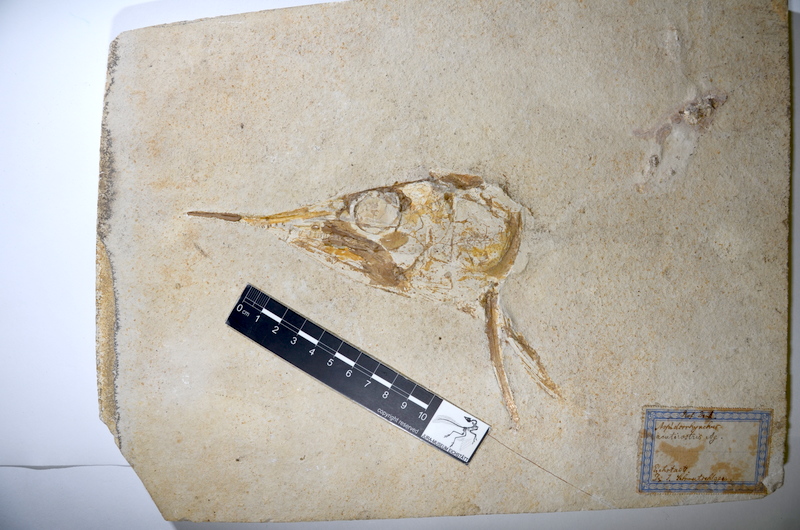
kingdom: Animalia
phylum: Chordata
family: Aspidorhynchidae
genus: Aspidorhynchus
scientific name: Aspidorhynchus acutirostris
